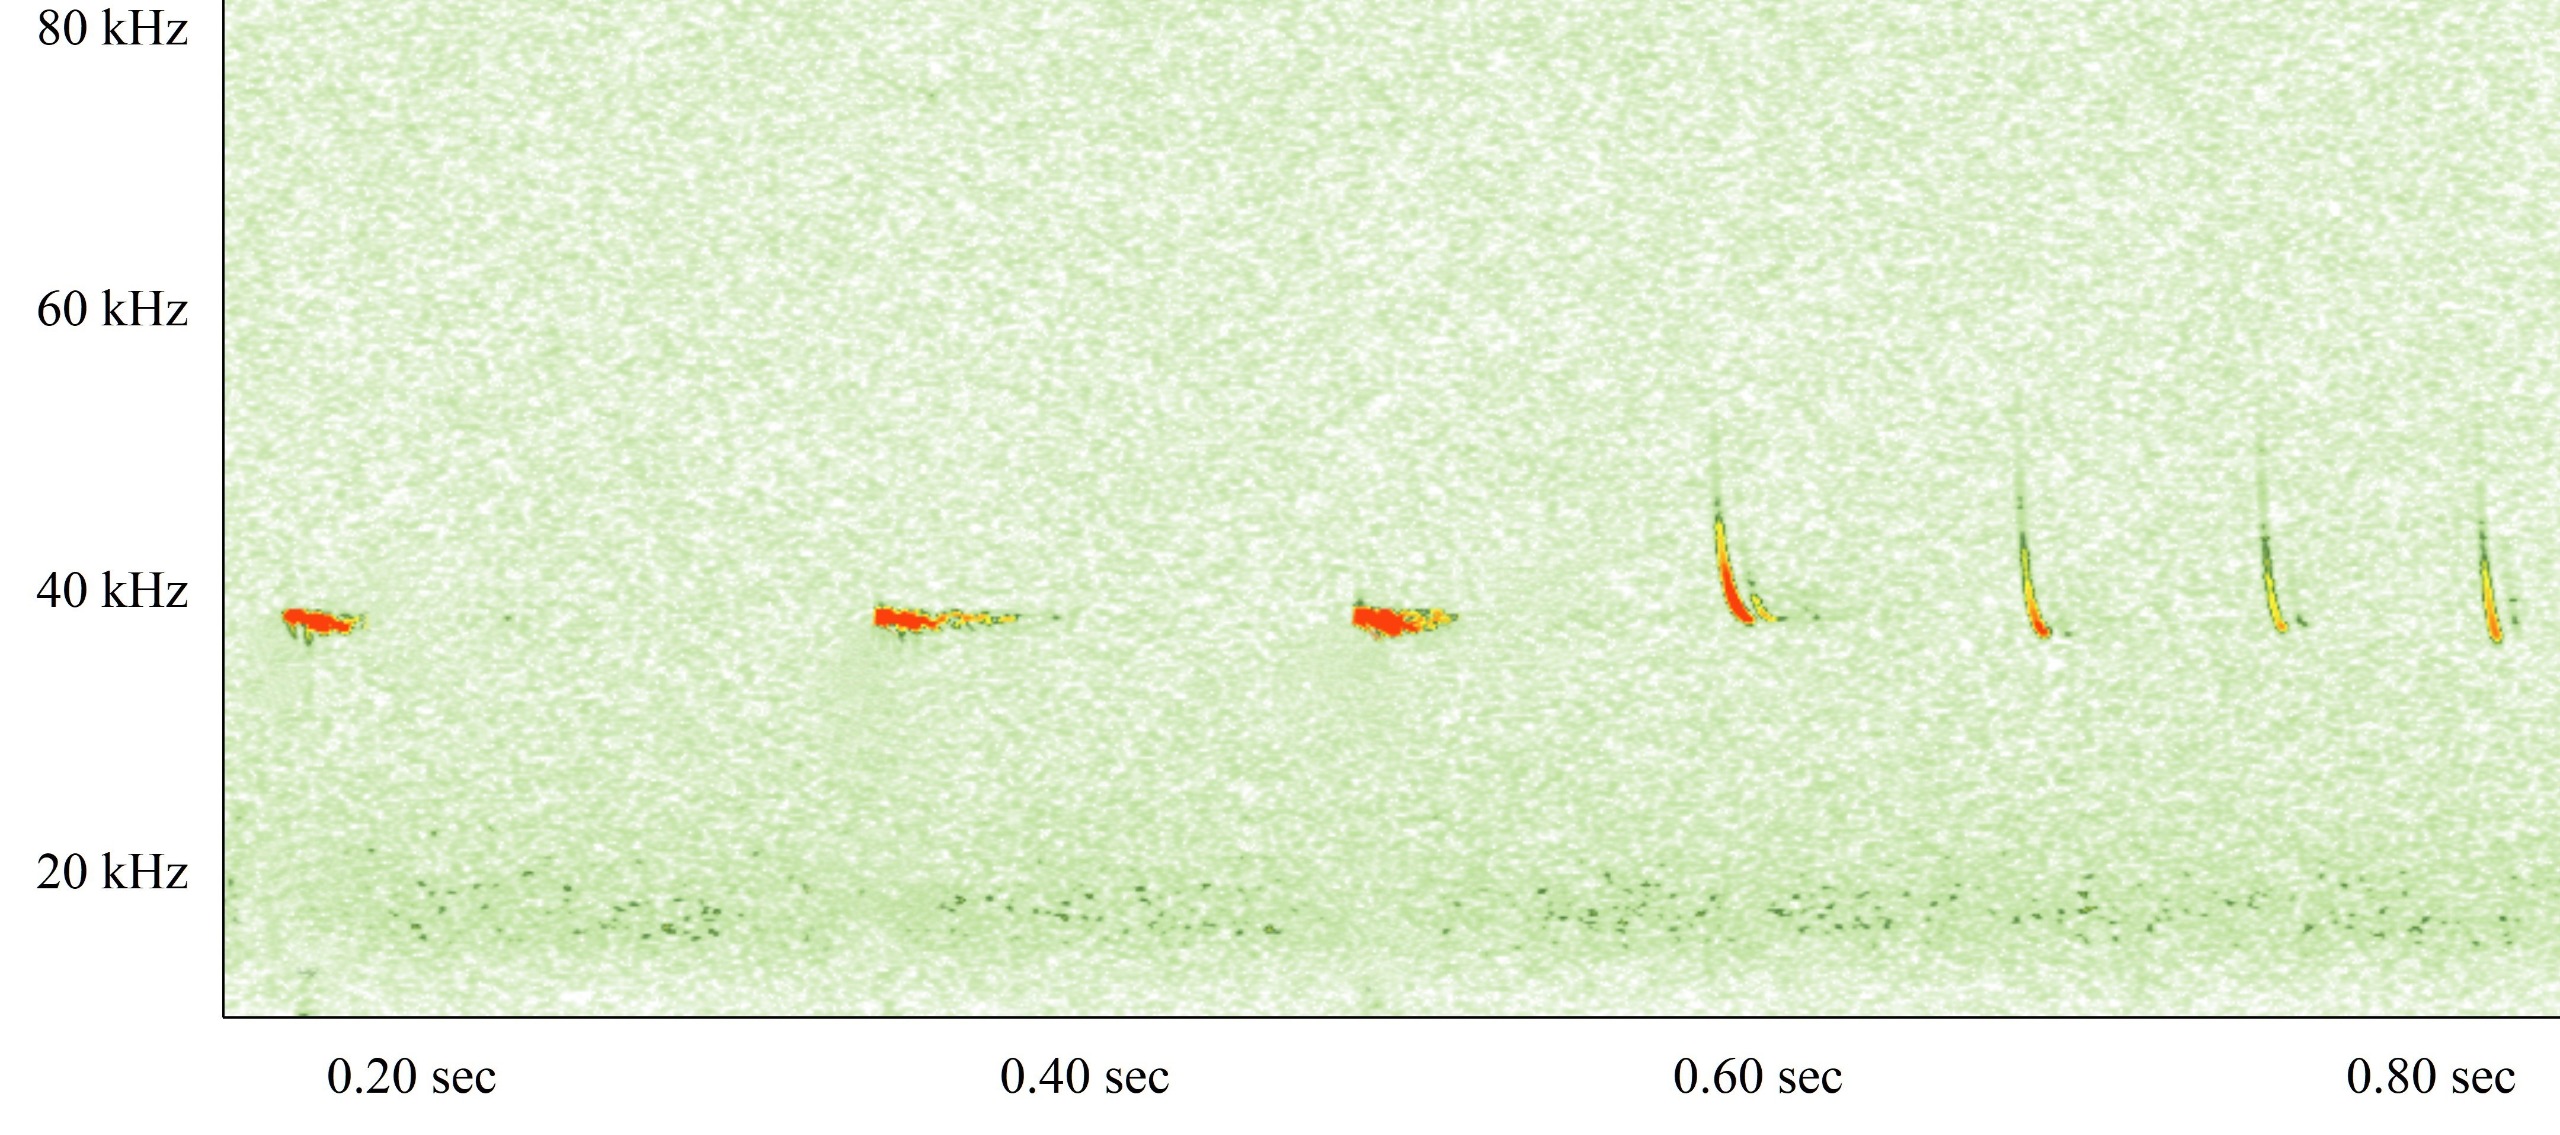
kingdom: Animalia
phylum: Chordata
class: Mammalia
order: Chiroptera
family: Vespertilionidae
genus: Pipistrellus
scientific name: Pipistrellus nathusii
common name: Troldflagermus
